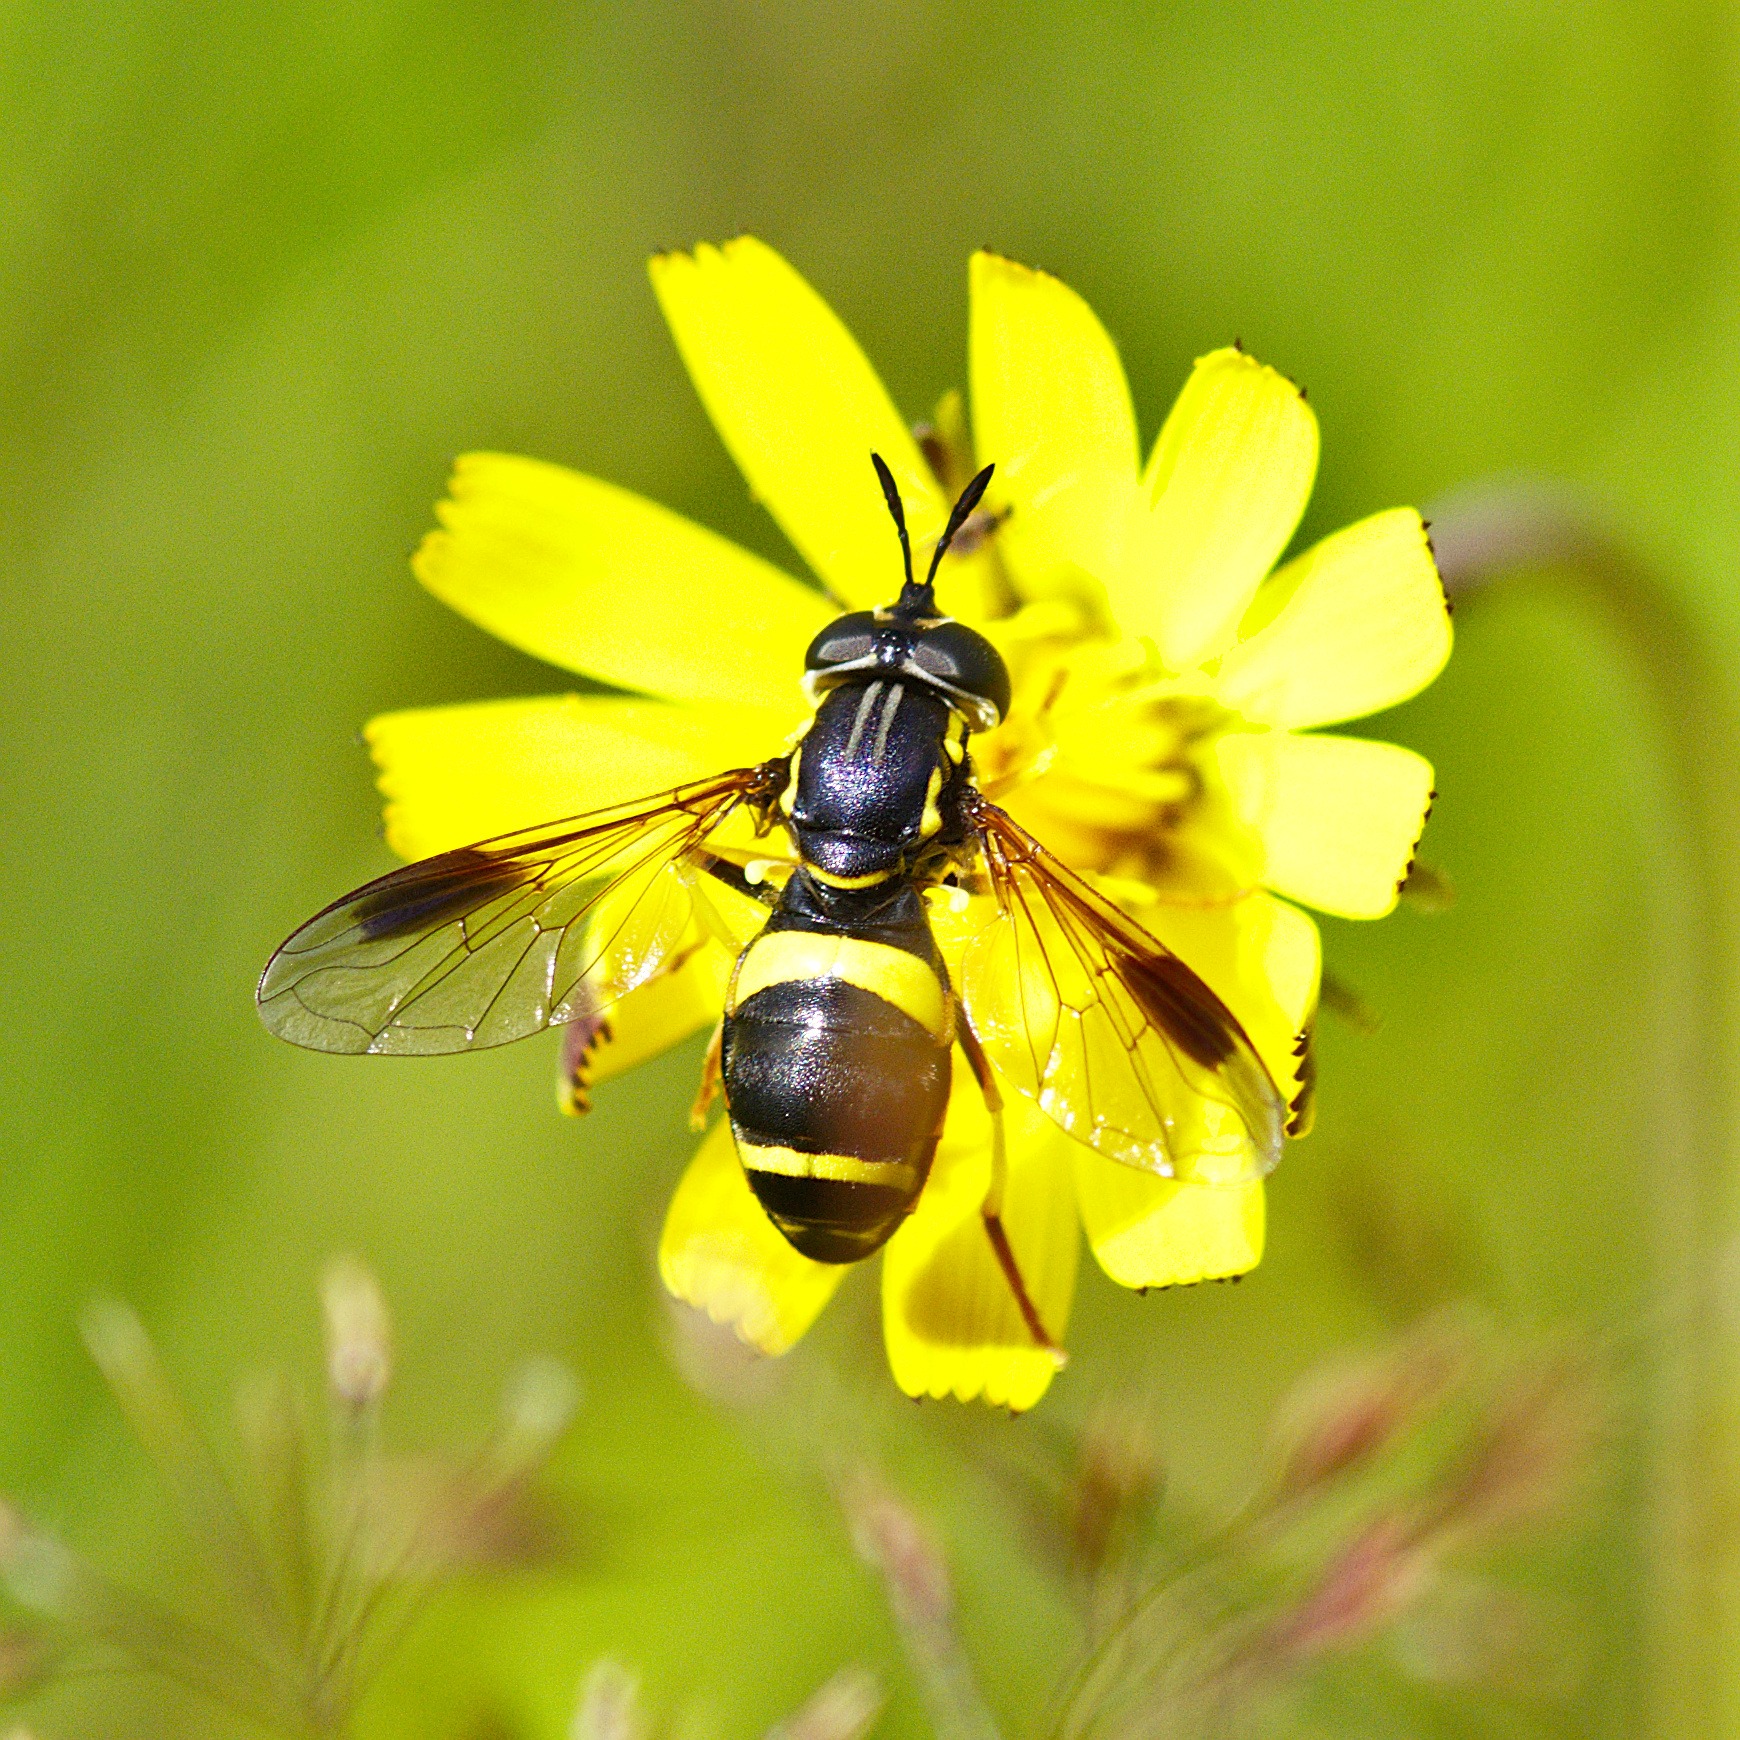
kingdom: Animalia
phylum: Arthropoda
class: Insecta
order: Diptera
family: Syrphidae
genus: Chrysotoxum
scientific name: Chrysotoxum bicincta
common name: Tobåndet hvepsesvirreflue
